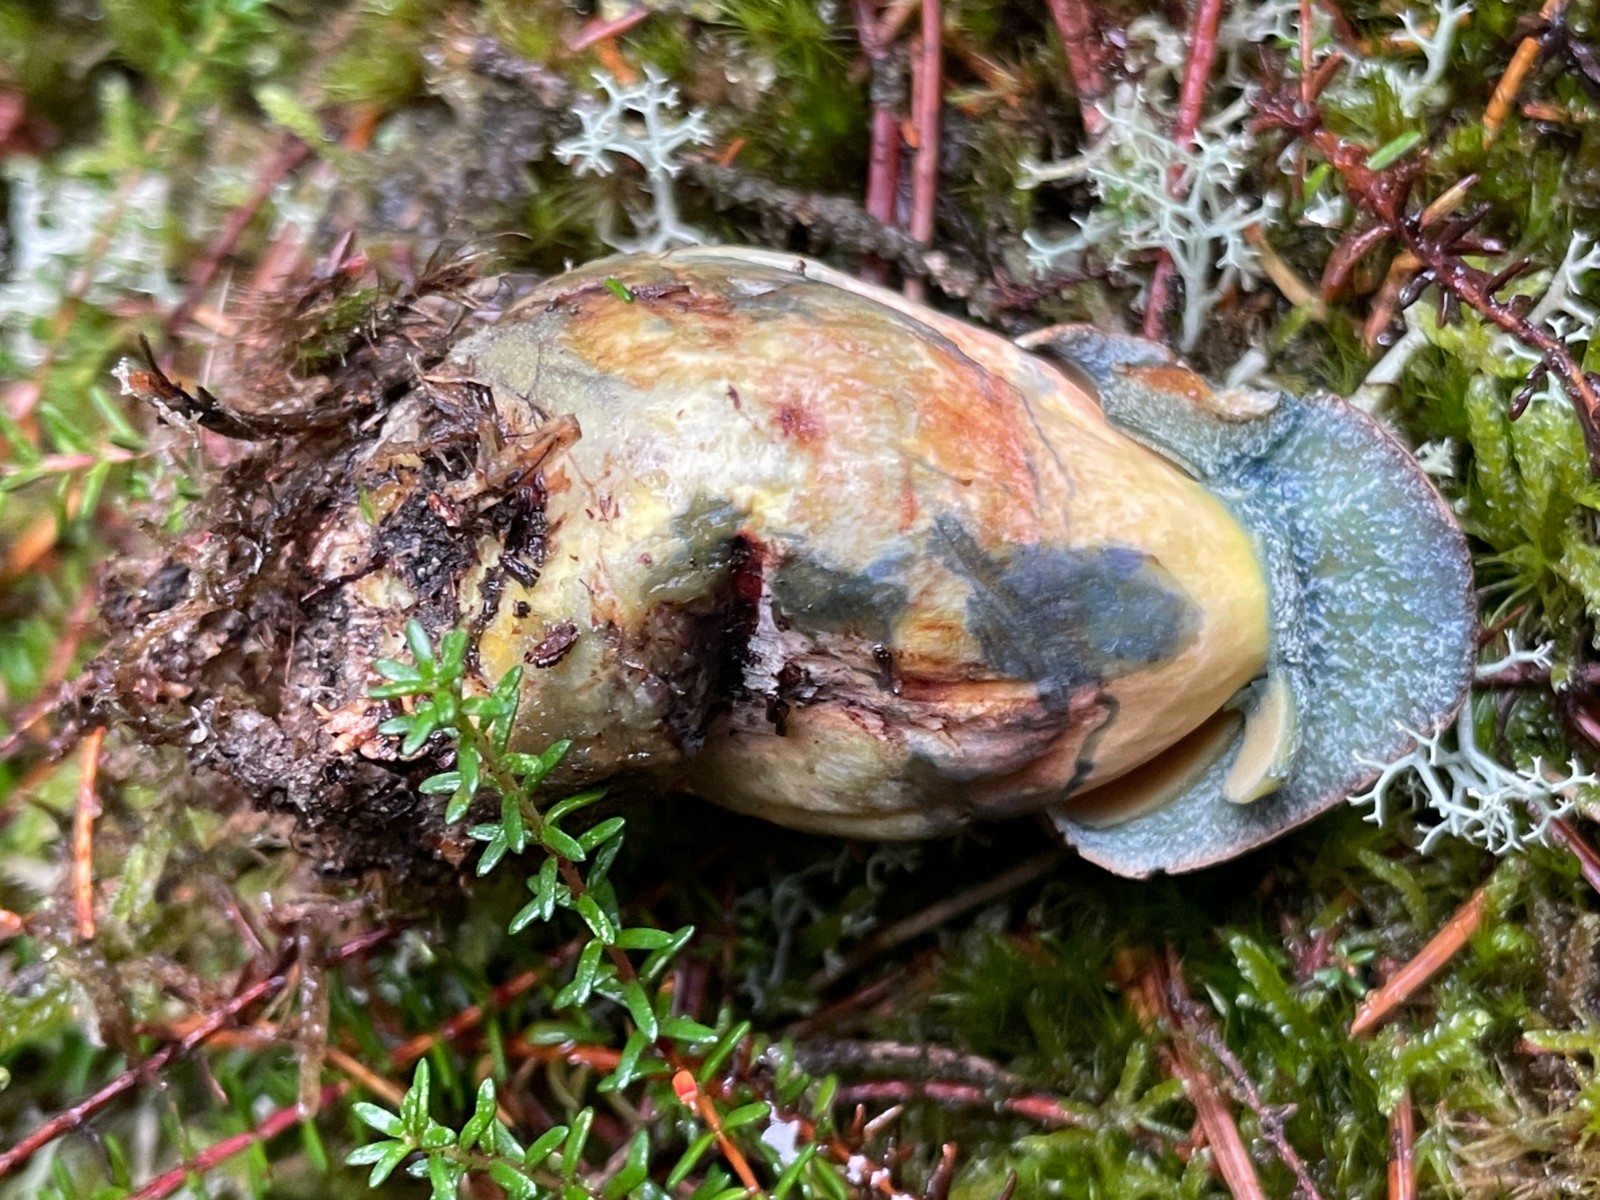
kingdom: Fungi
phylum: Basidiomycota
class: Agaricomycetes
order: Boletales
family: Boletaceae
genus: Neoboletus
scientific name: Neoboletus erythropus
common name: punktstokket indigorørhat
